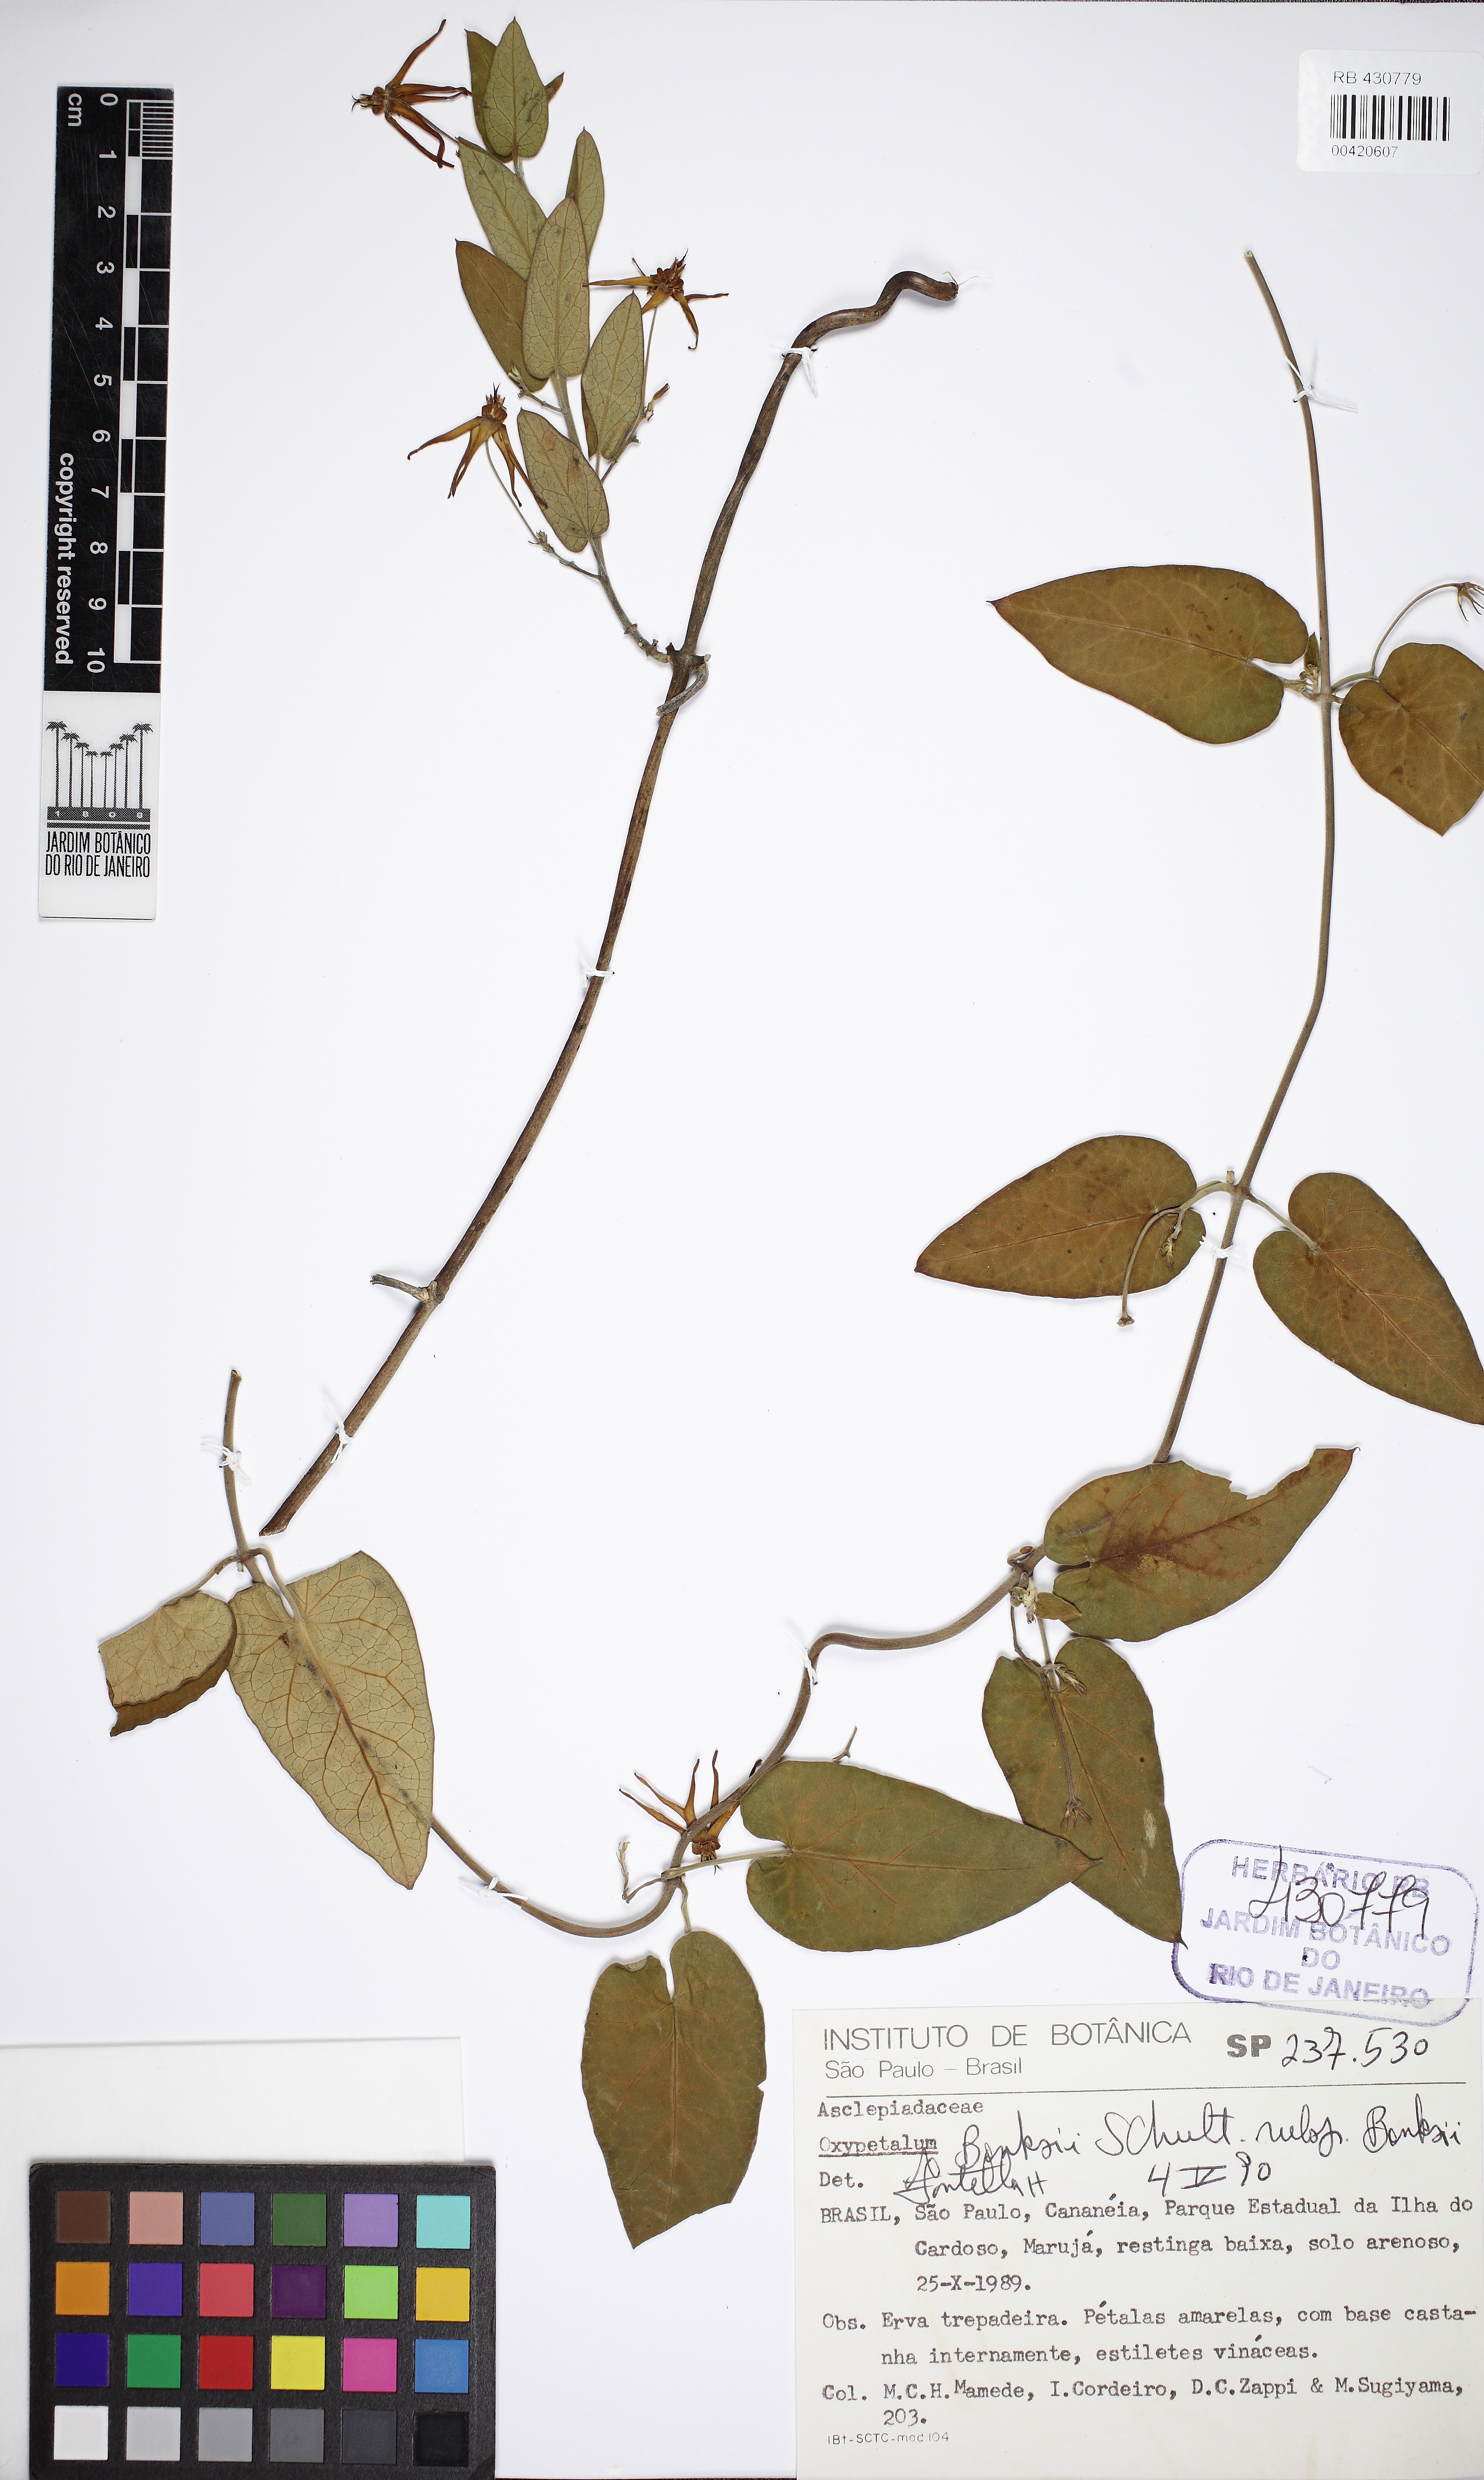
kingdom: Plantae
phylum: Tracheophyta
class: Magnoliopsida
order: Gentianales
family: Apocynaceae
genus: Oxypetalum
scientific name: Oxypetalum banksii
